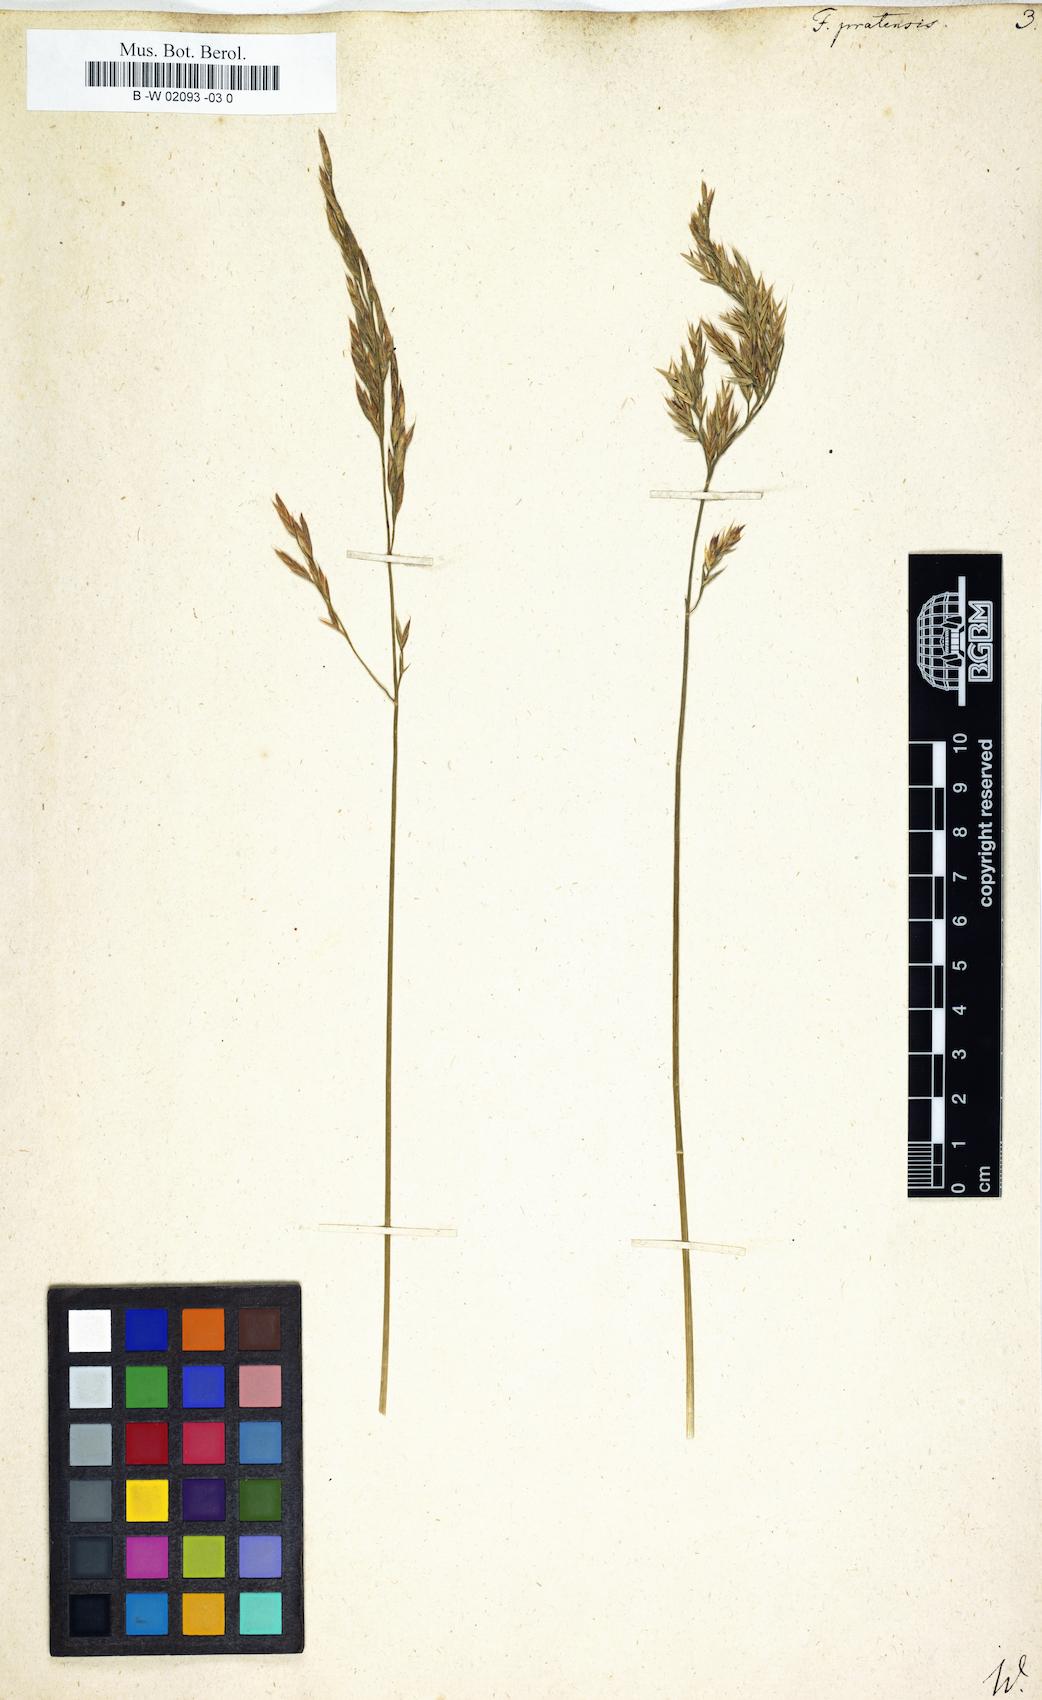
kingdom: Plantae
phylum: Tracheophyta
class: Liliopsida
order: Poales
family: Poaceae
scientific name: Poaceae
